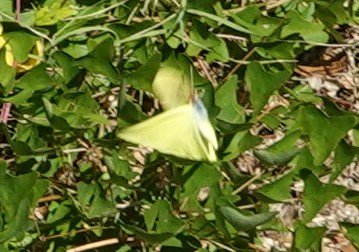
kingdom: Animalia
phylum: Arthropoda
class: Insecta
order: Lepidoptera
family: Pieridae
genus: Pyrisitia
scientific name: Pyrisitia lisa
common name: Little Yellow
